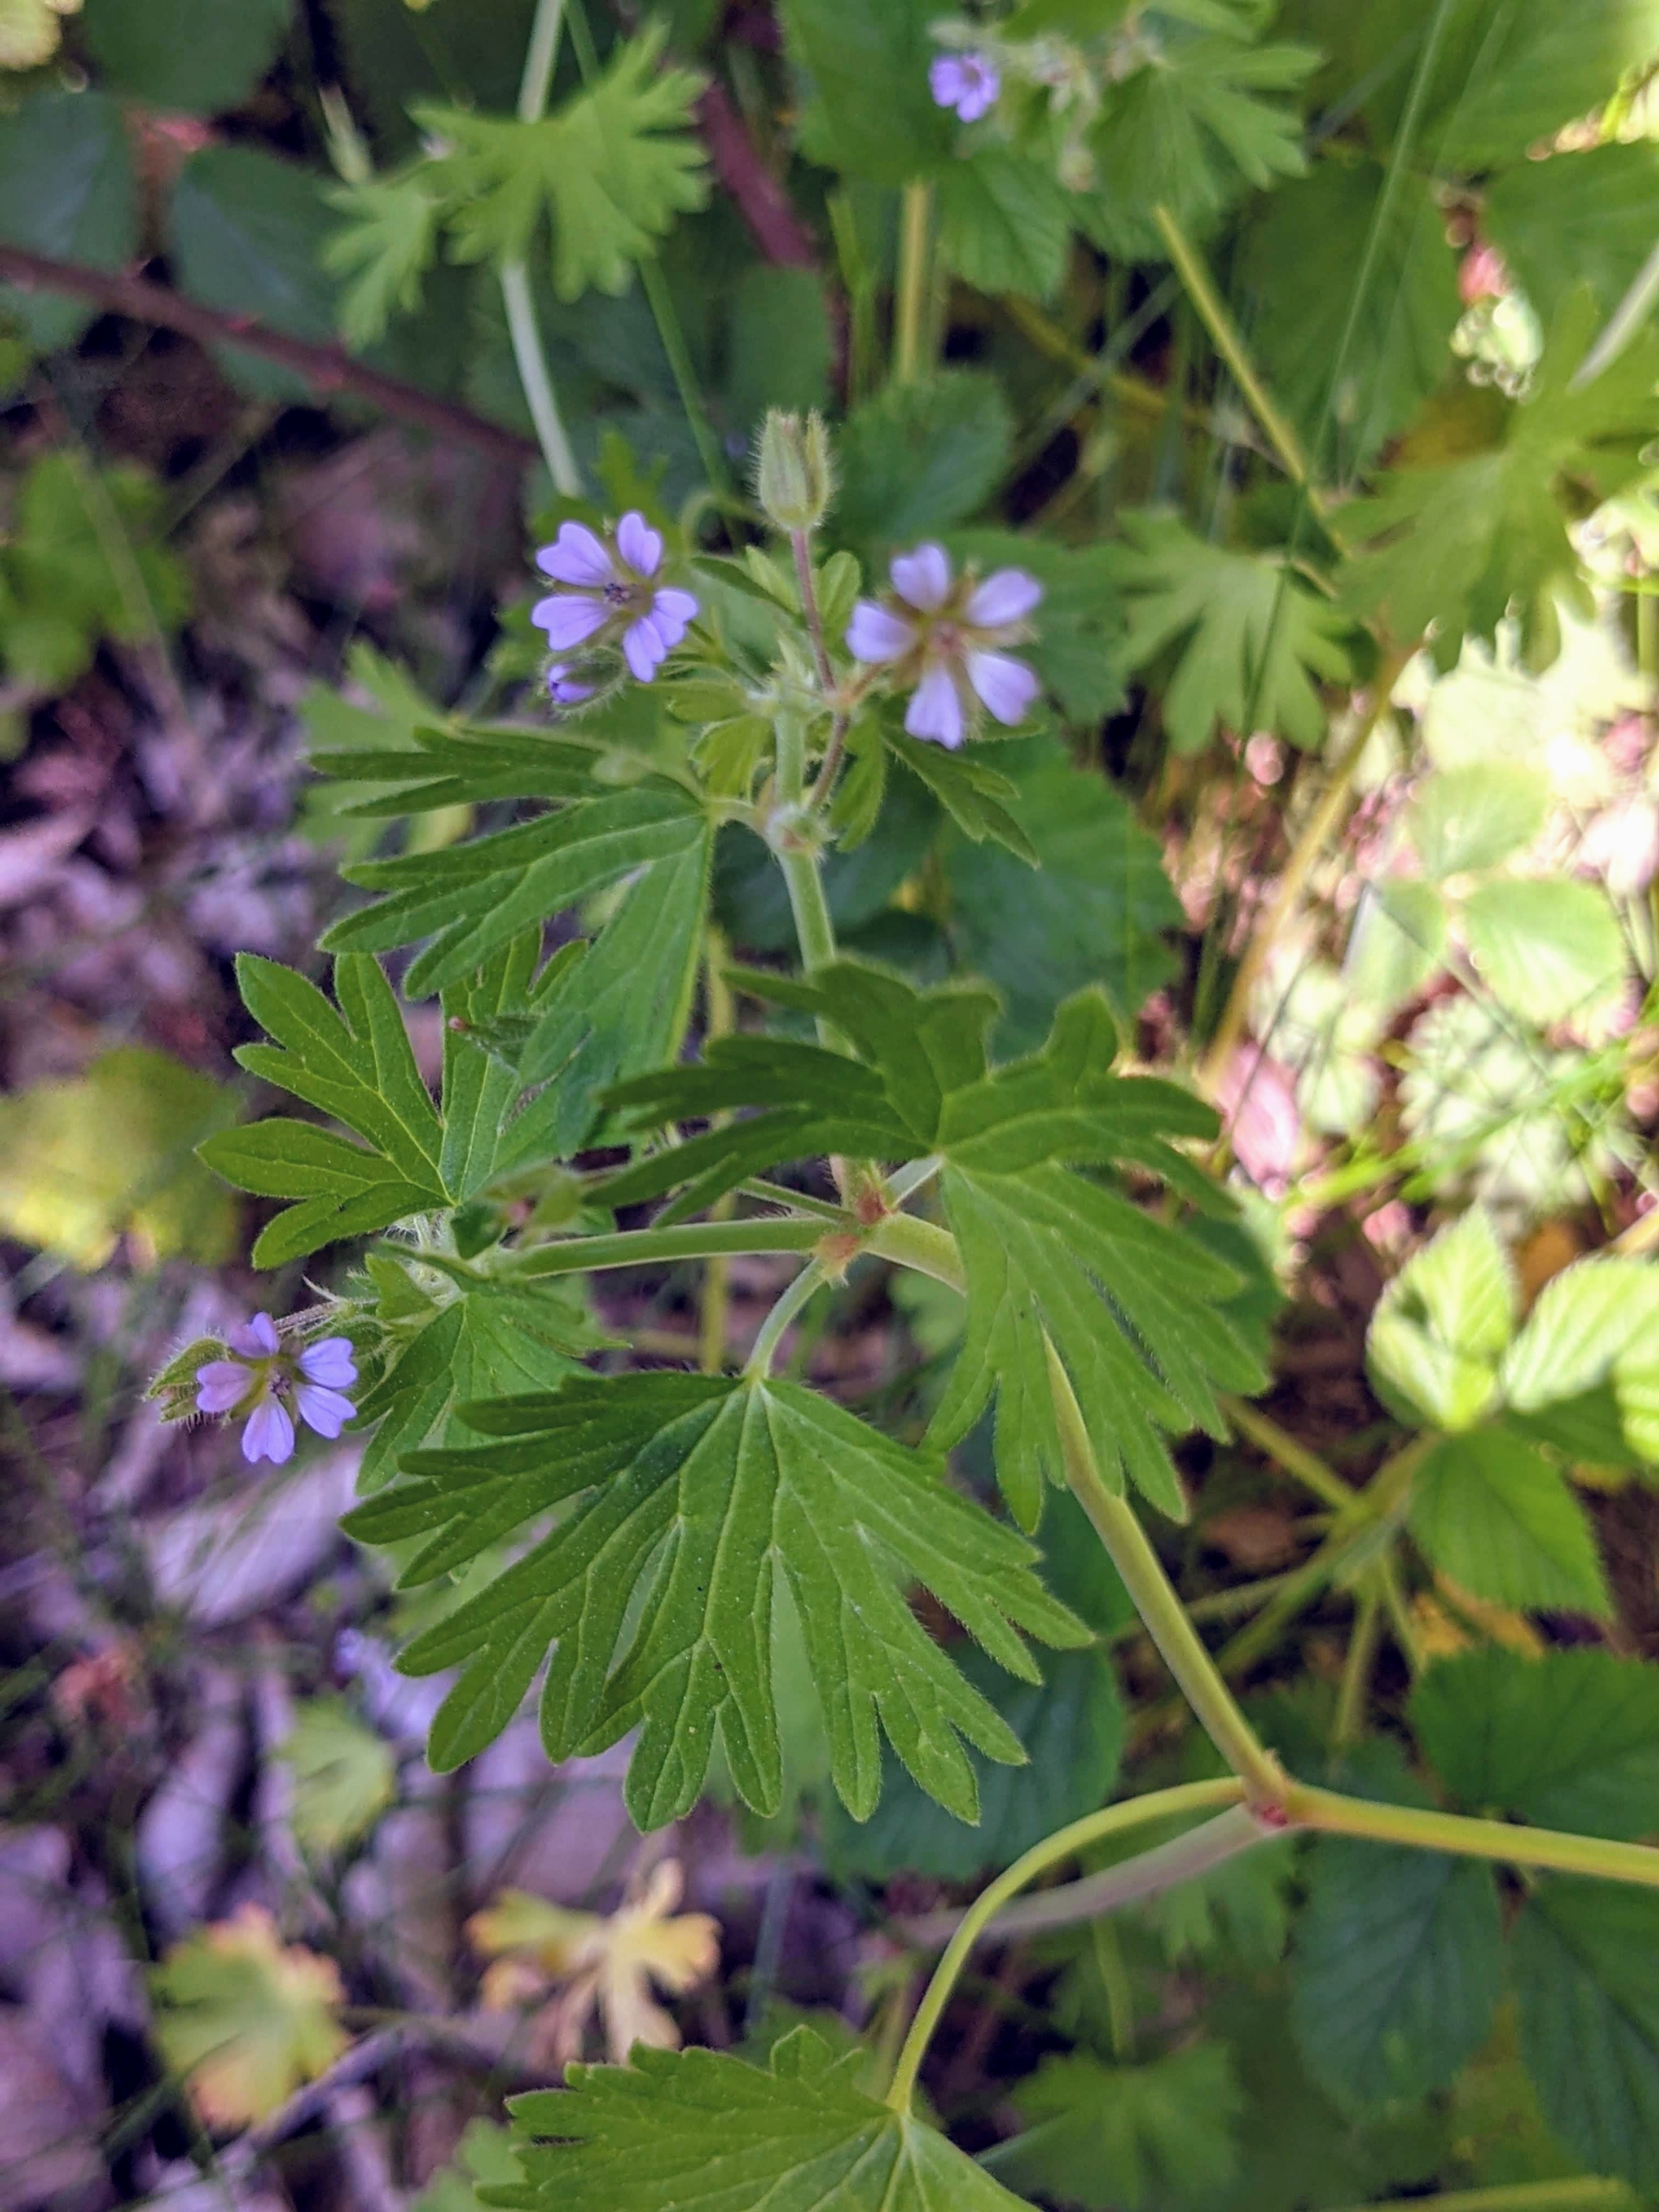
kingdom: Plantae
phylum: Tracheophyta
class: Magnoliopsida
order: Geraniales
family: Geraniaceae
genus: Geranium
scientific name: Geranium pusillum
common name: Liden storkenæb
